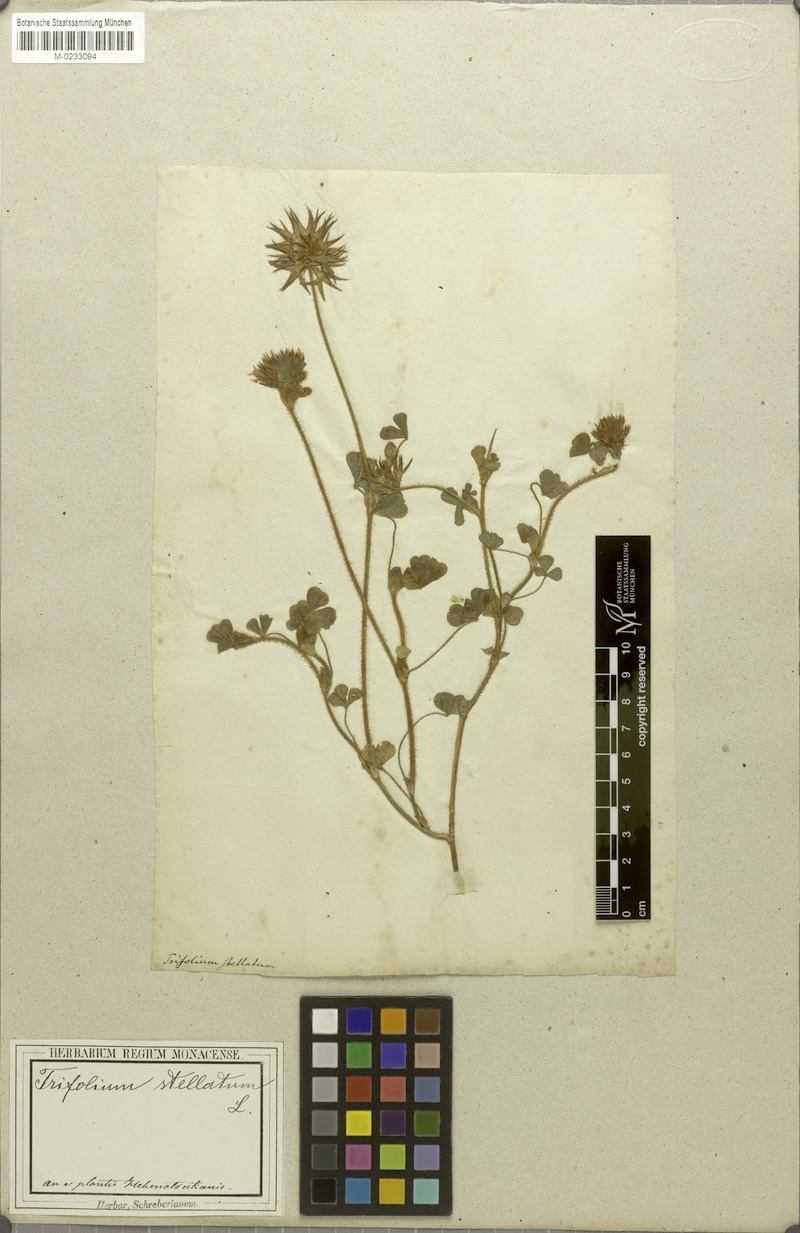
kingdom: Plantae
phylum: Tracheophyta
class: Magnoliopsida
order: Fabales
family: Fabaceae
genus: Trifolium
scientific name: Trifolium stellatum
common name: Starry clover
